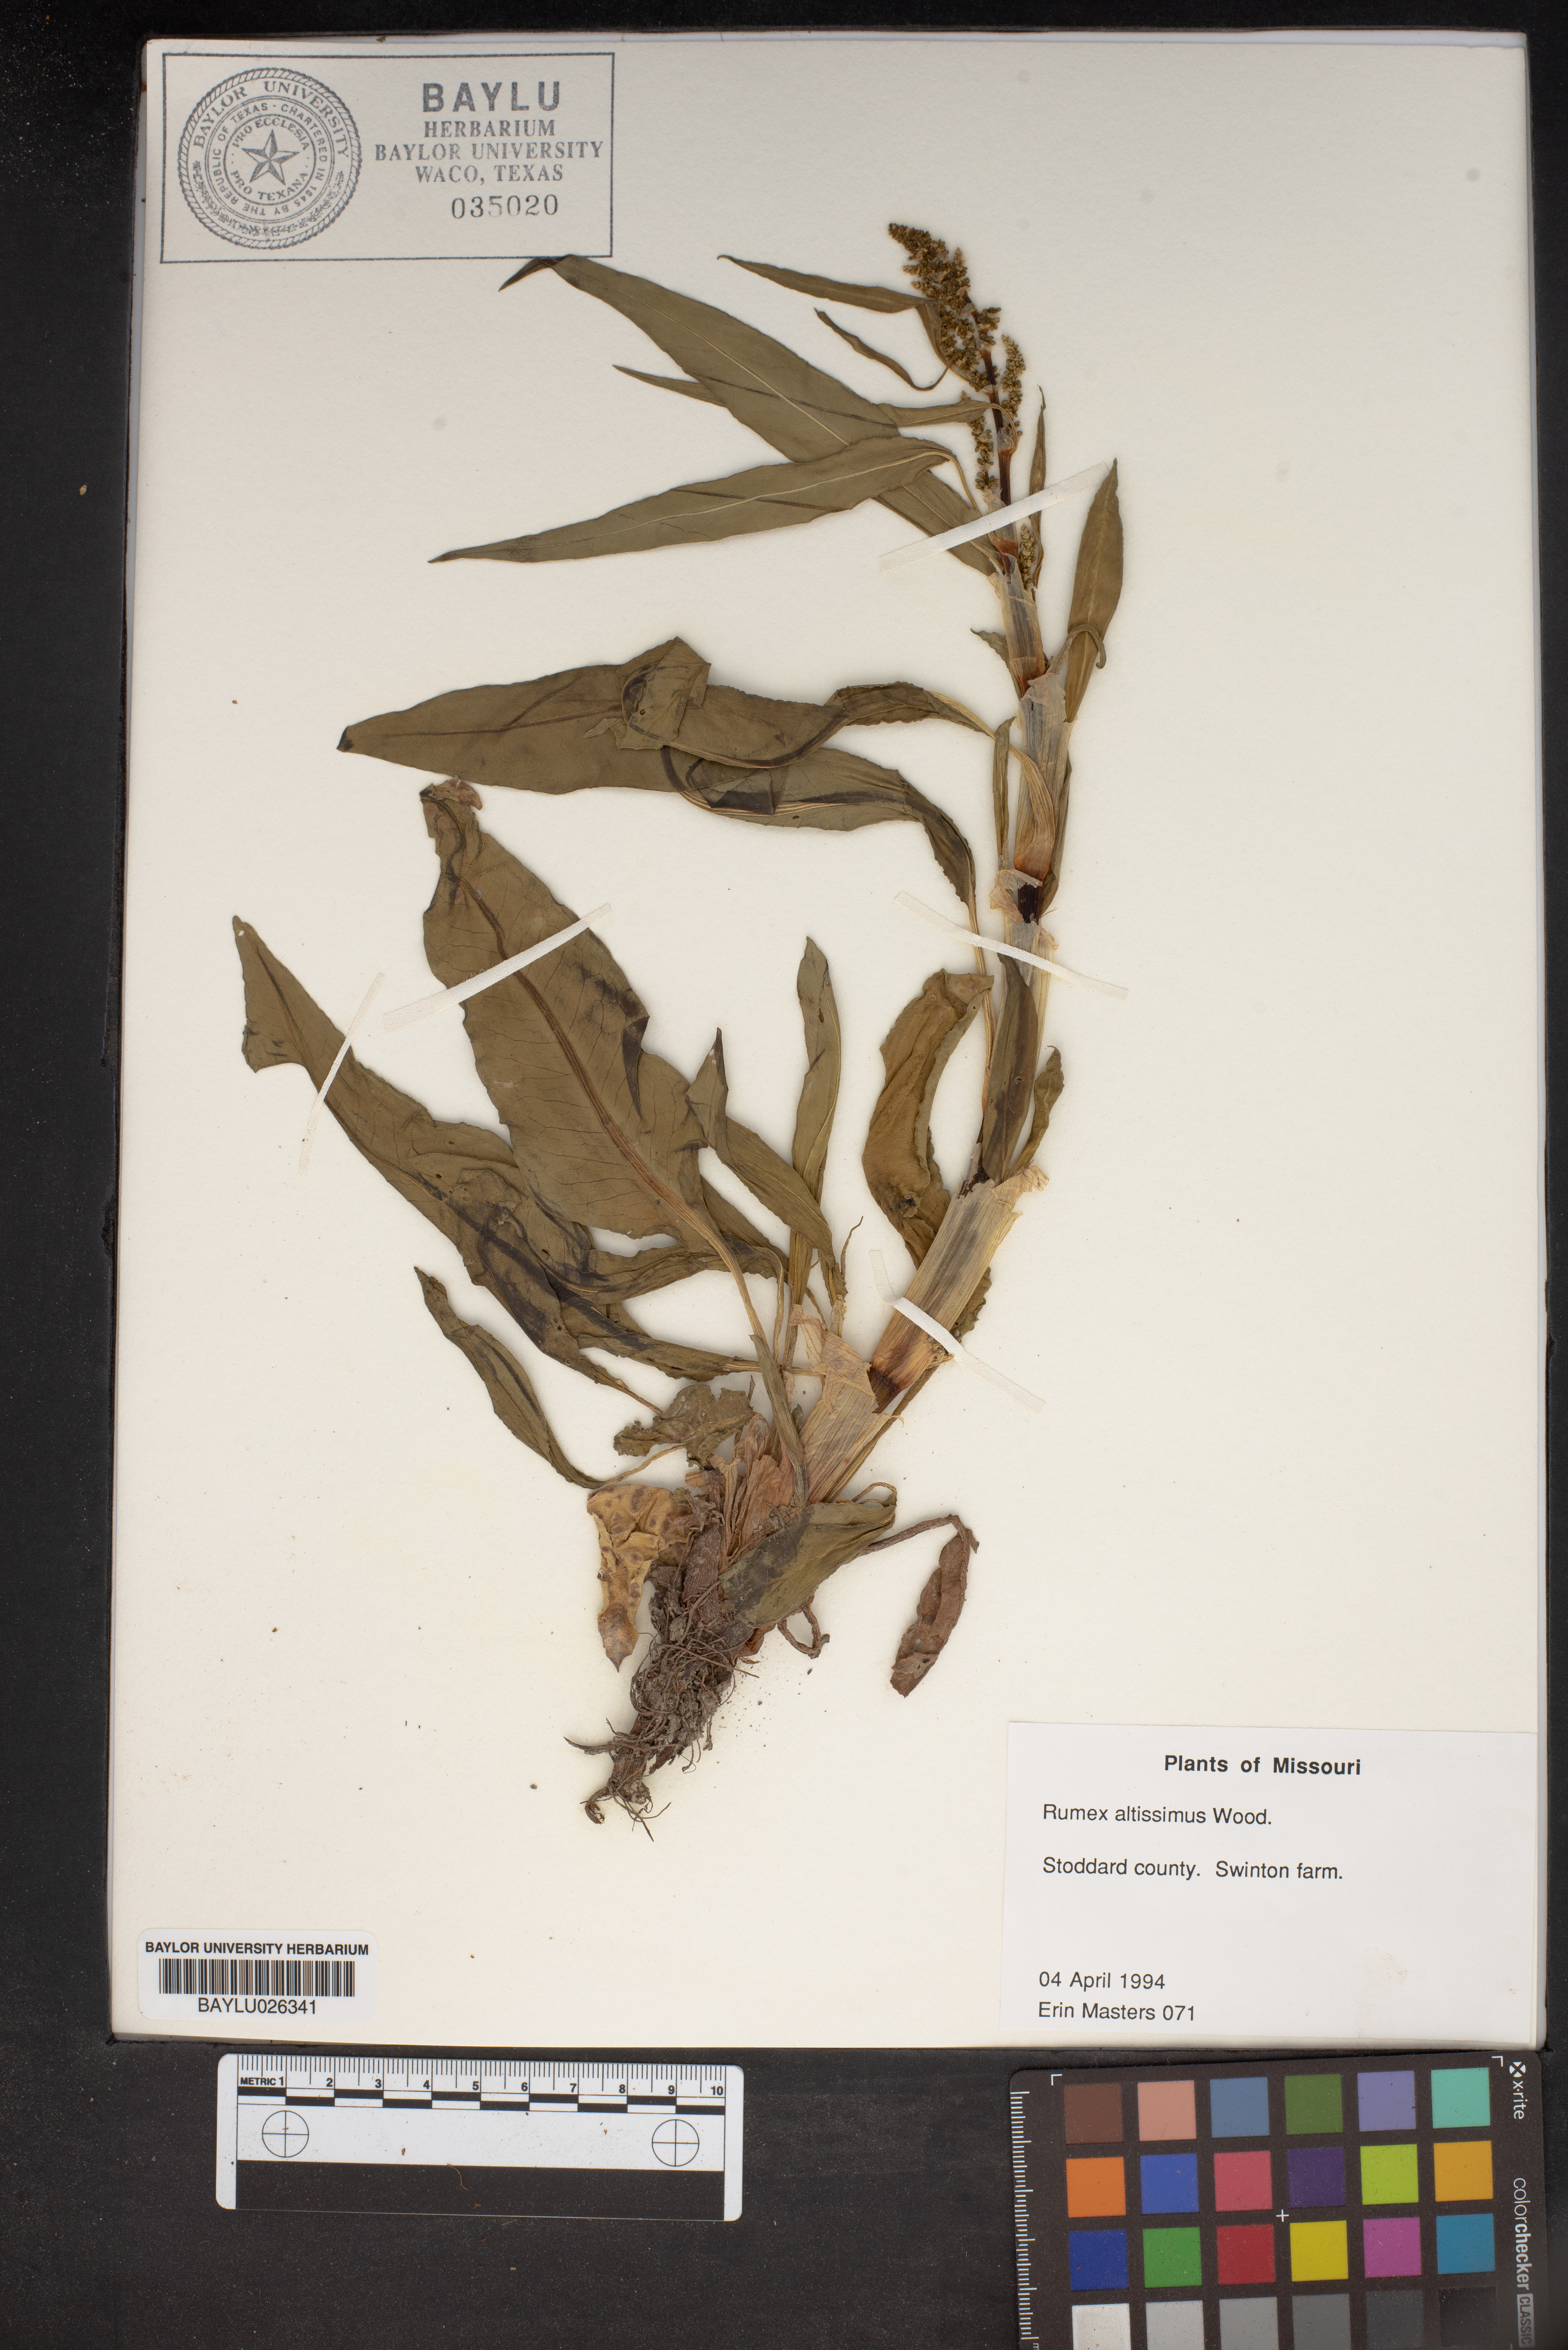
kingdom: Plantae
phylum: Tracheophyta
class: Magnoliopsida
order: Caryophyllales
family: Polygonaceae
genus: Rumex
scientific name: Rumex altissimus
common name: Smooth dock
